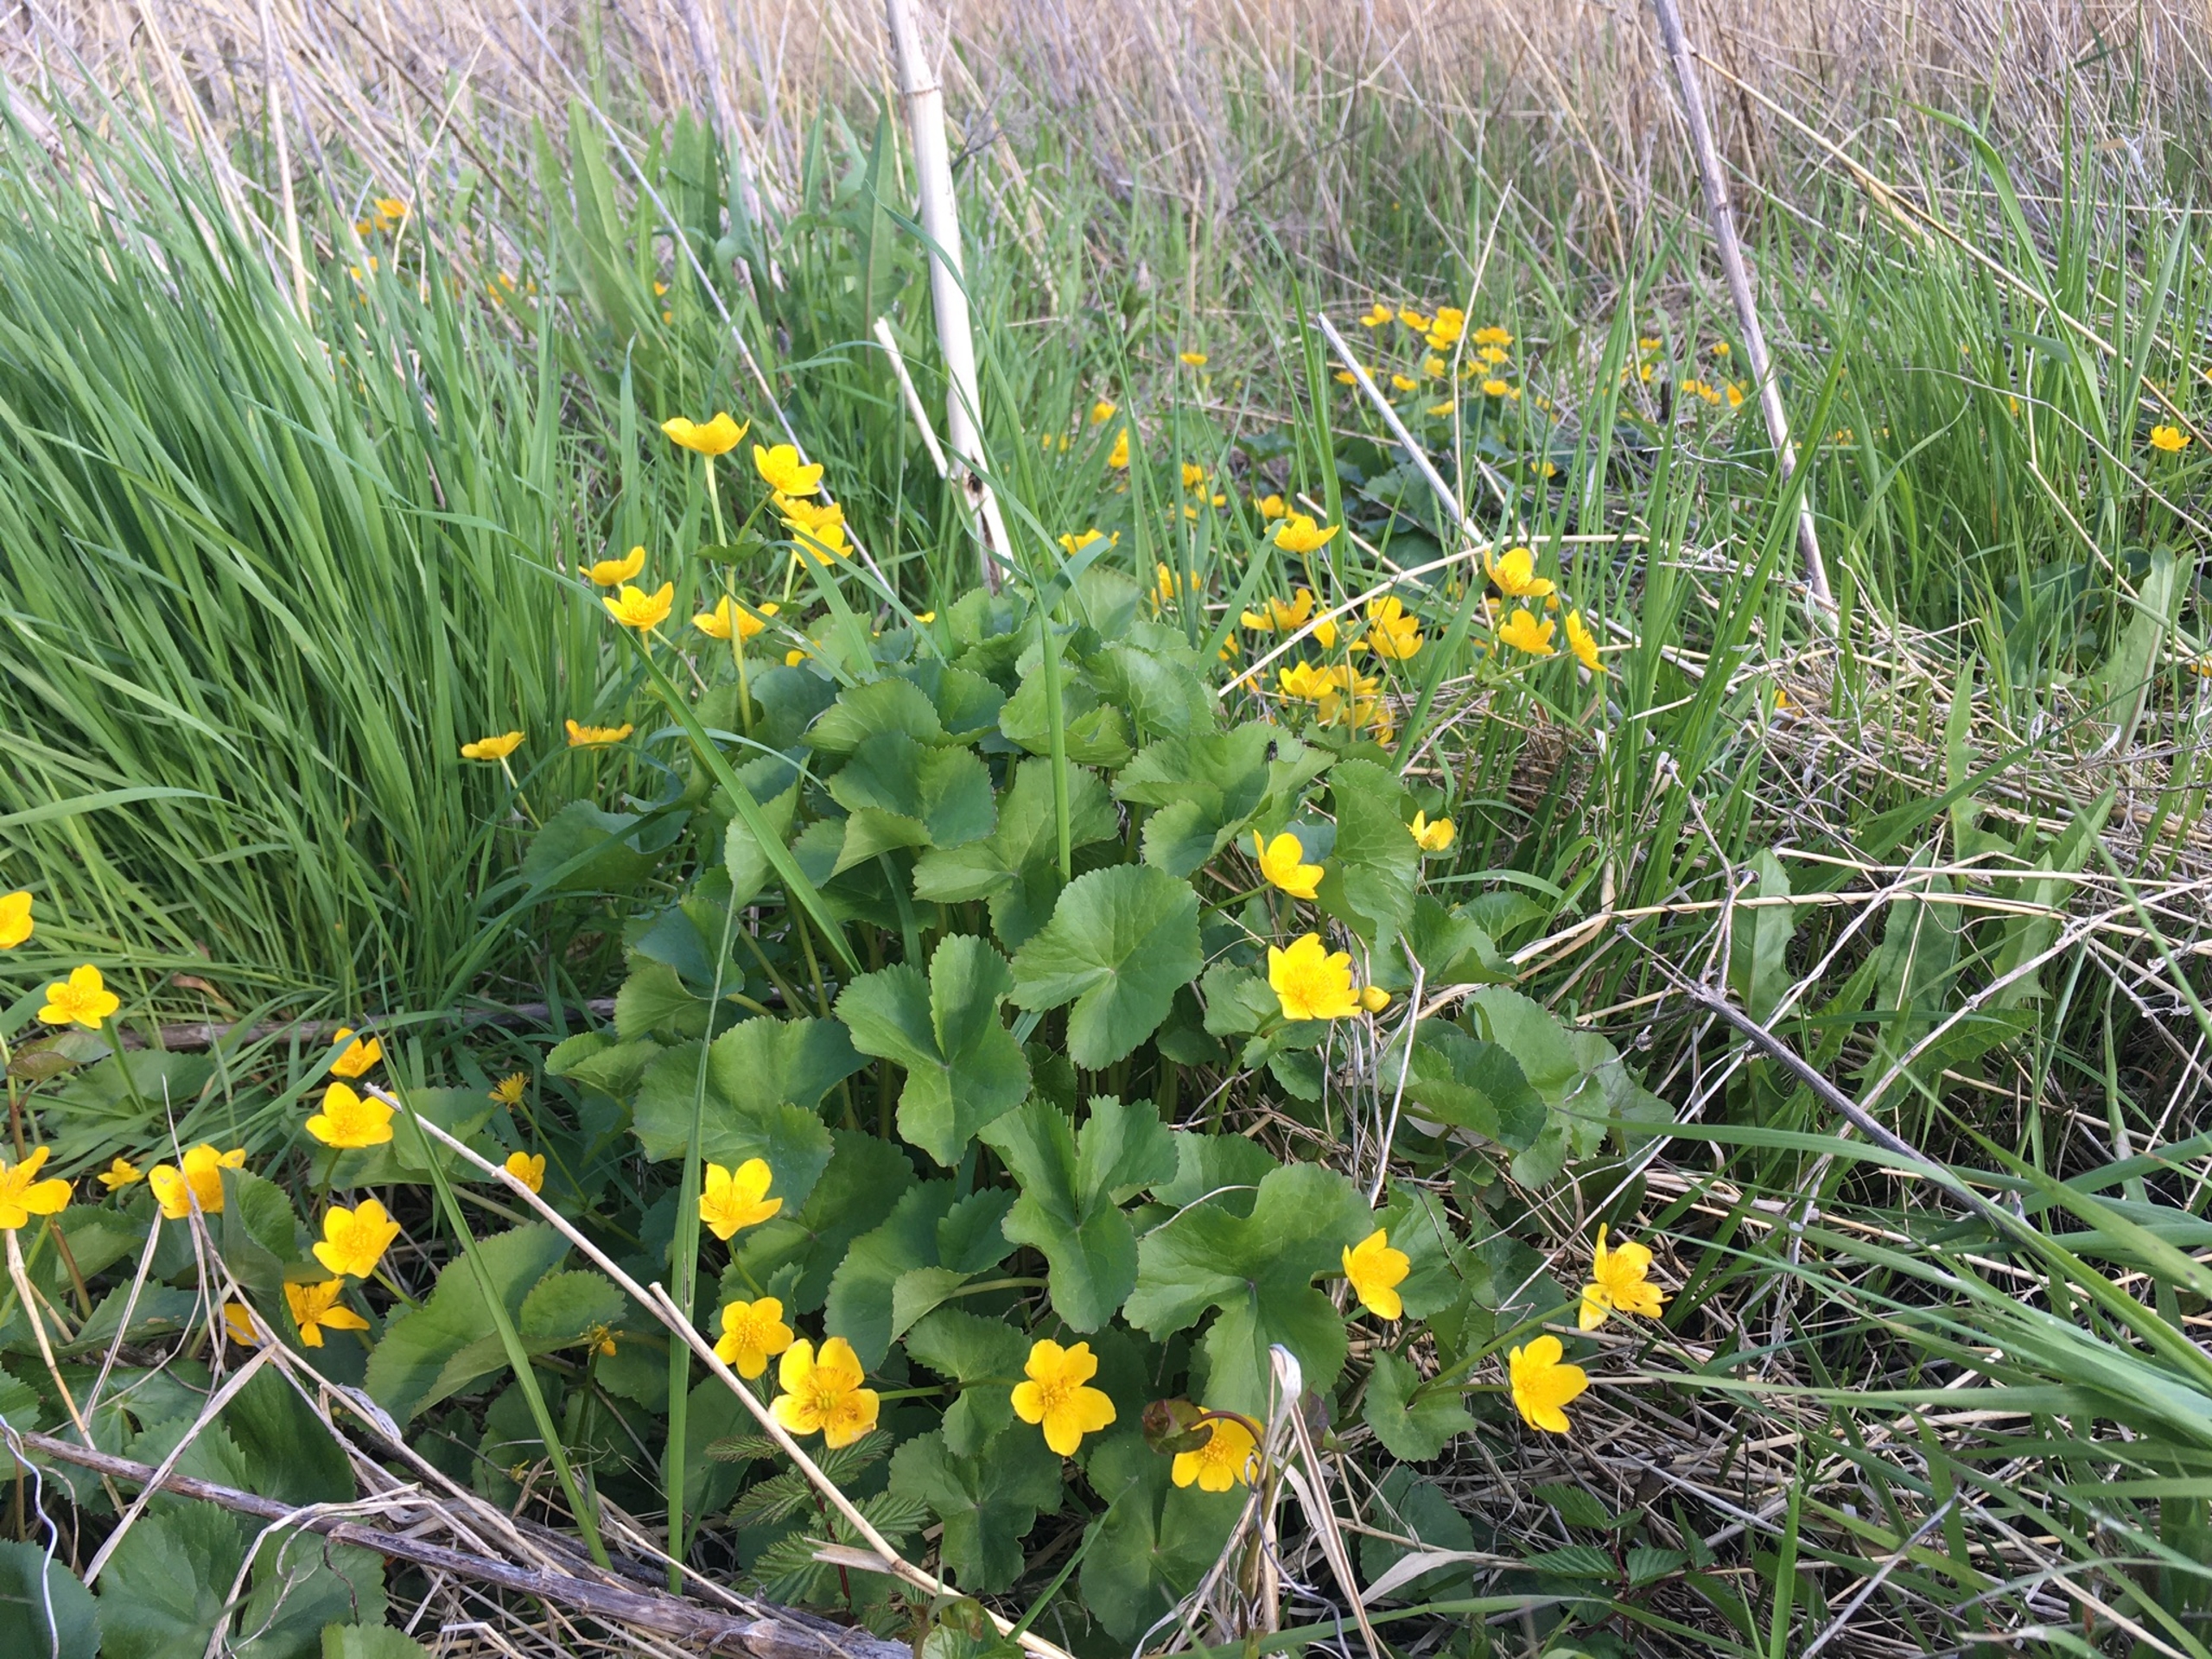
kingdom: Plantae
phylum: Tracheophyta
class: Magnoliopsida
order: Ranunculales
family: Ranunculaceae
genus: Caltha
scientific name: Caltha palustris
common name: Eng-kabbeleje
